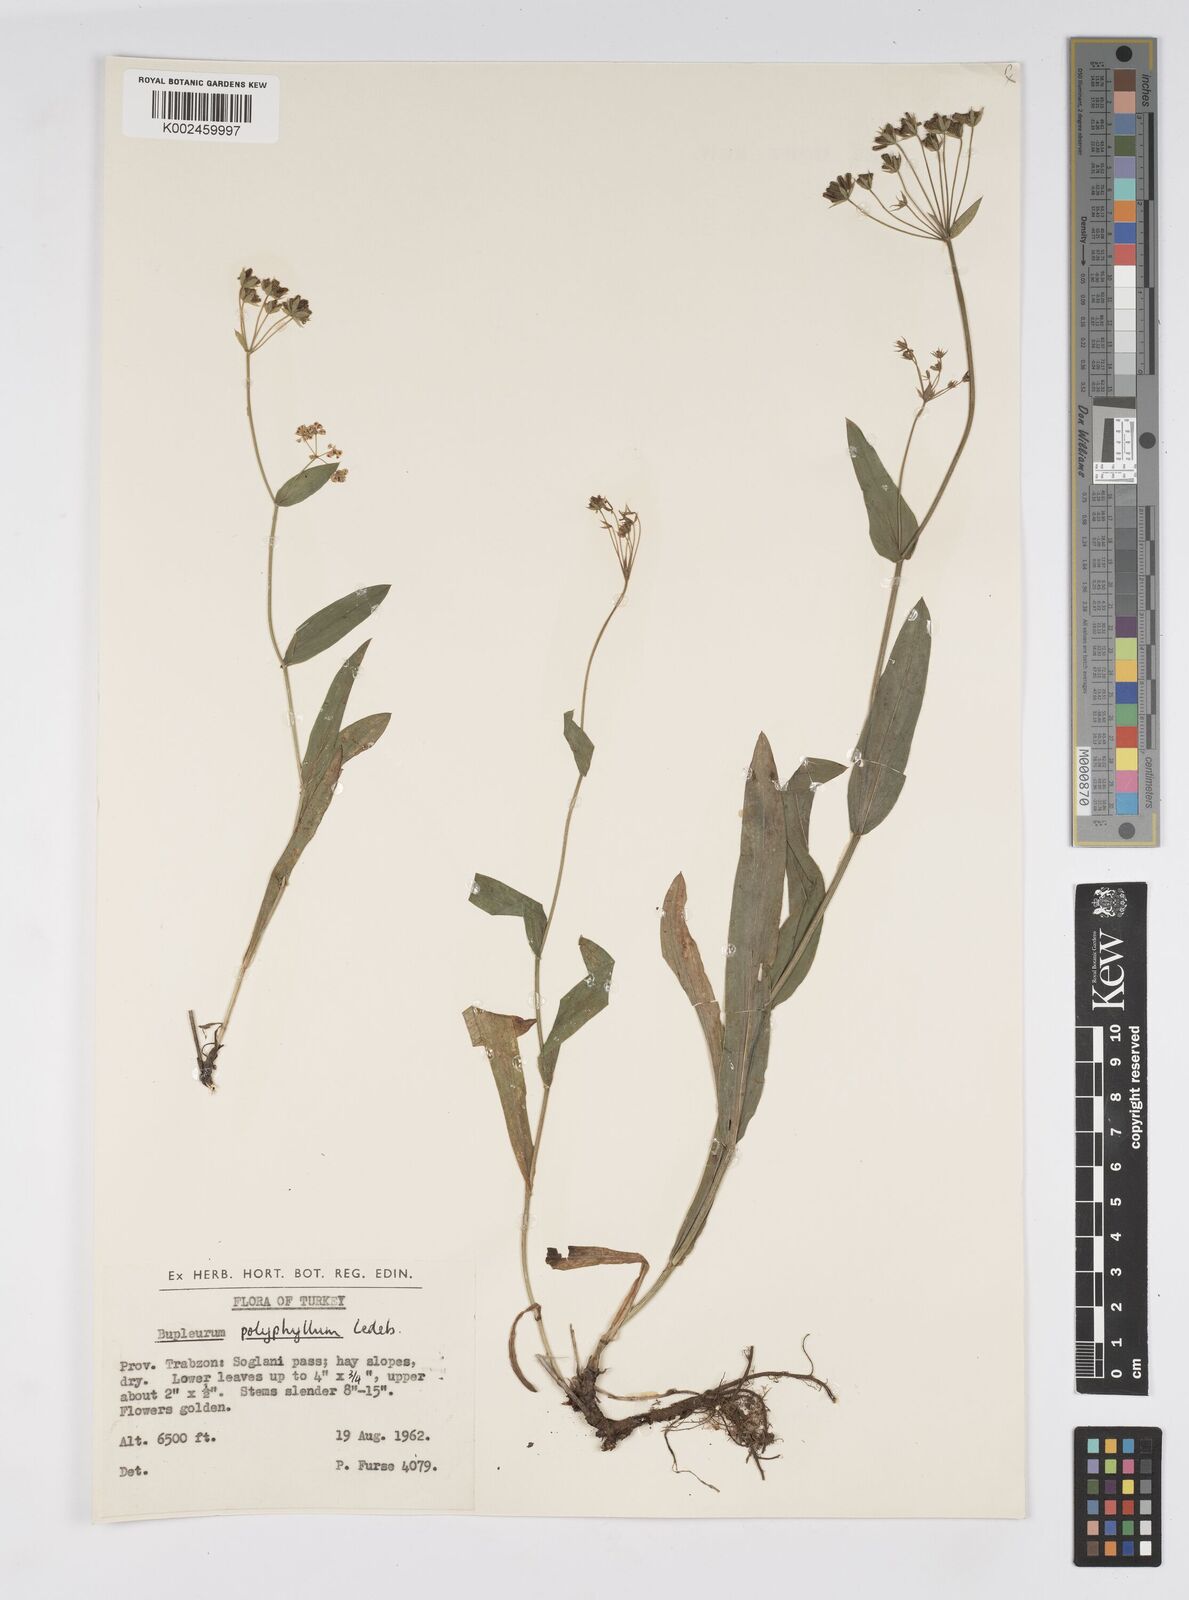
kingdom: Plantae
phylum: Tracheophyta
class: Magnoliopsida
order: Apiales
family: Apiaceae
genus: Bupleurum
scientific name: Bupleurum falcatum
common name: Sickle-leaved hare's-ear
